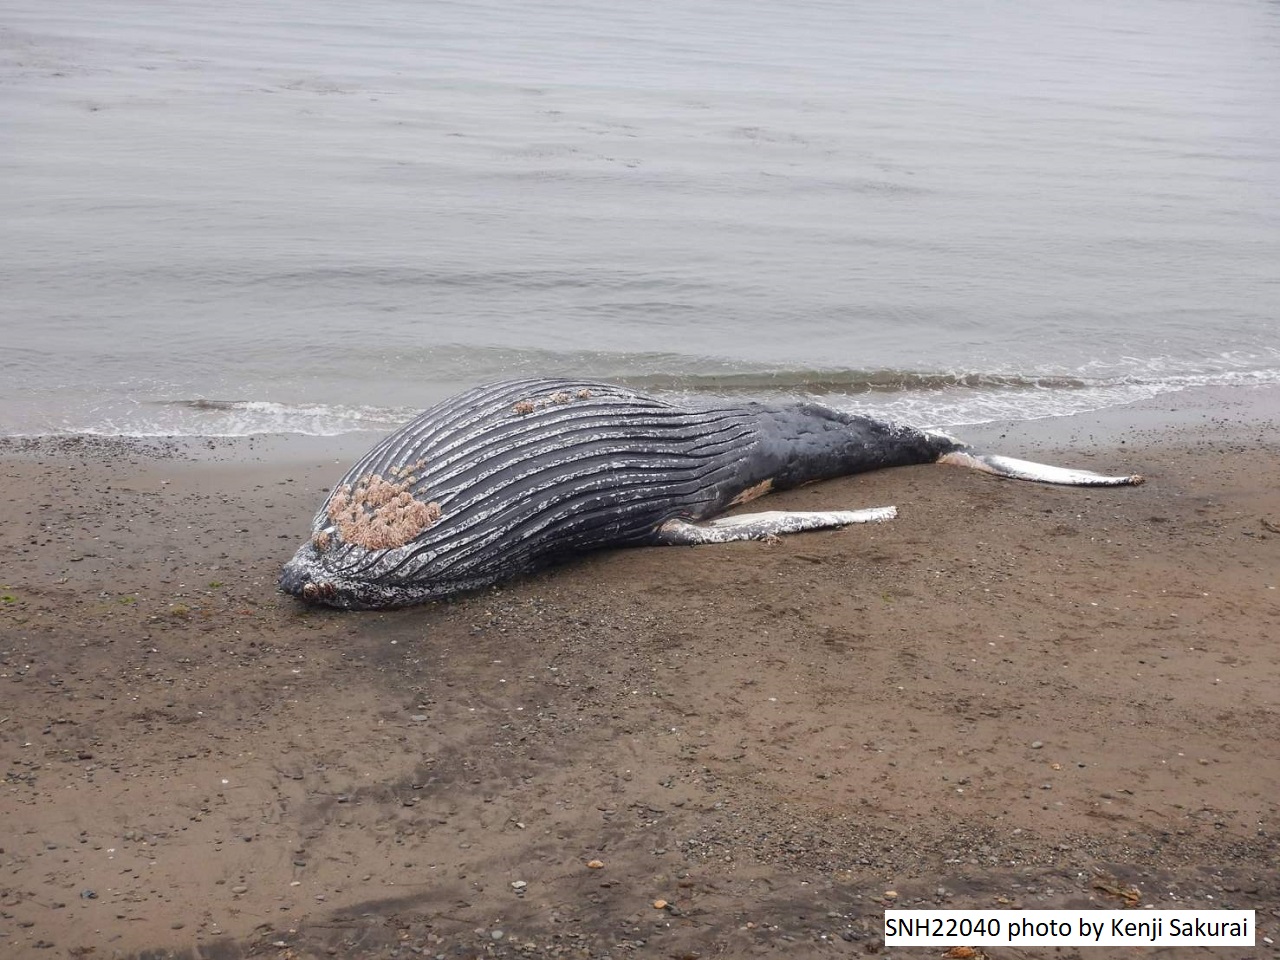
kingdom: Animalia
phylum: Chordata
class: Mammalia
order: Cetacea
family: Balaenopteridae
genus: Megaptera
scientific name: Megaptera novaeangliae
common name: Humpback whale
